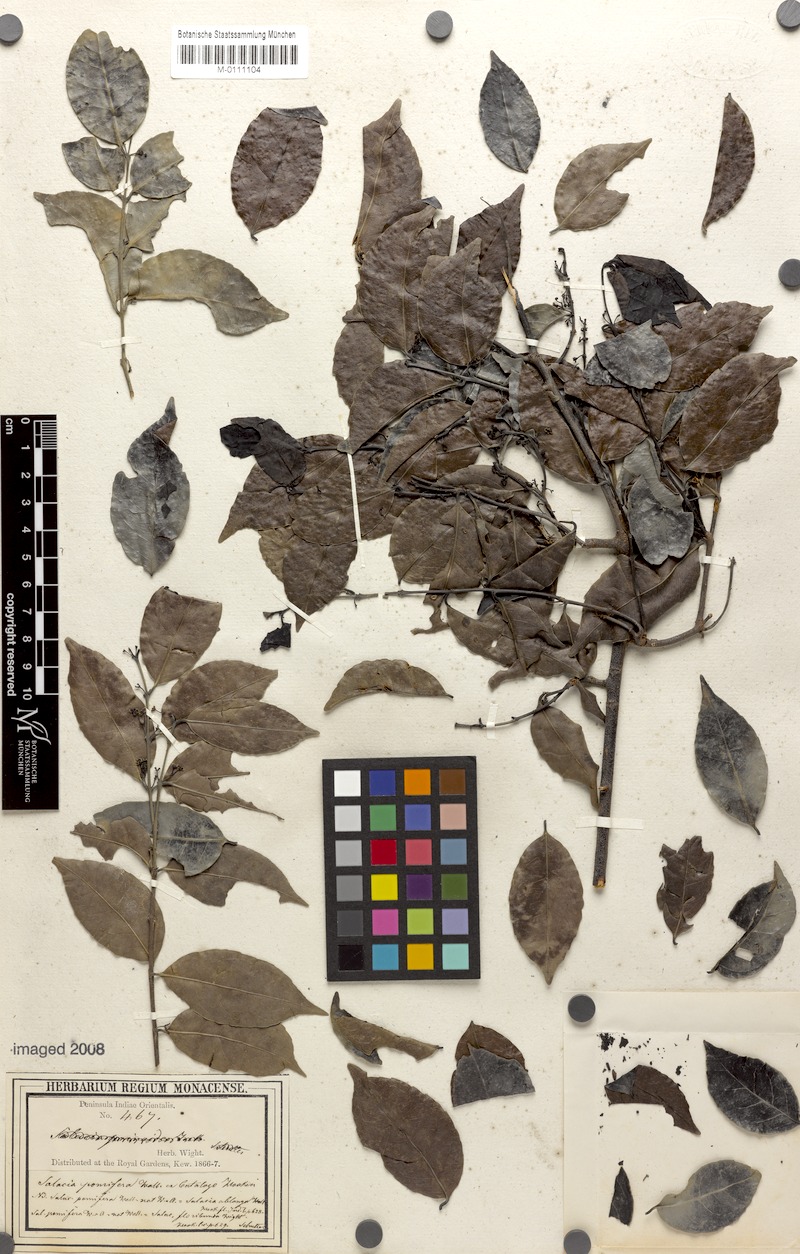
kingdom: Plantae
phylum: Tracheophyta
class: Magnoliopsida
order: Celastrales
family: Celastraceae
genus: Salacia
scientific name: Salacia oblonga
